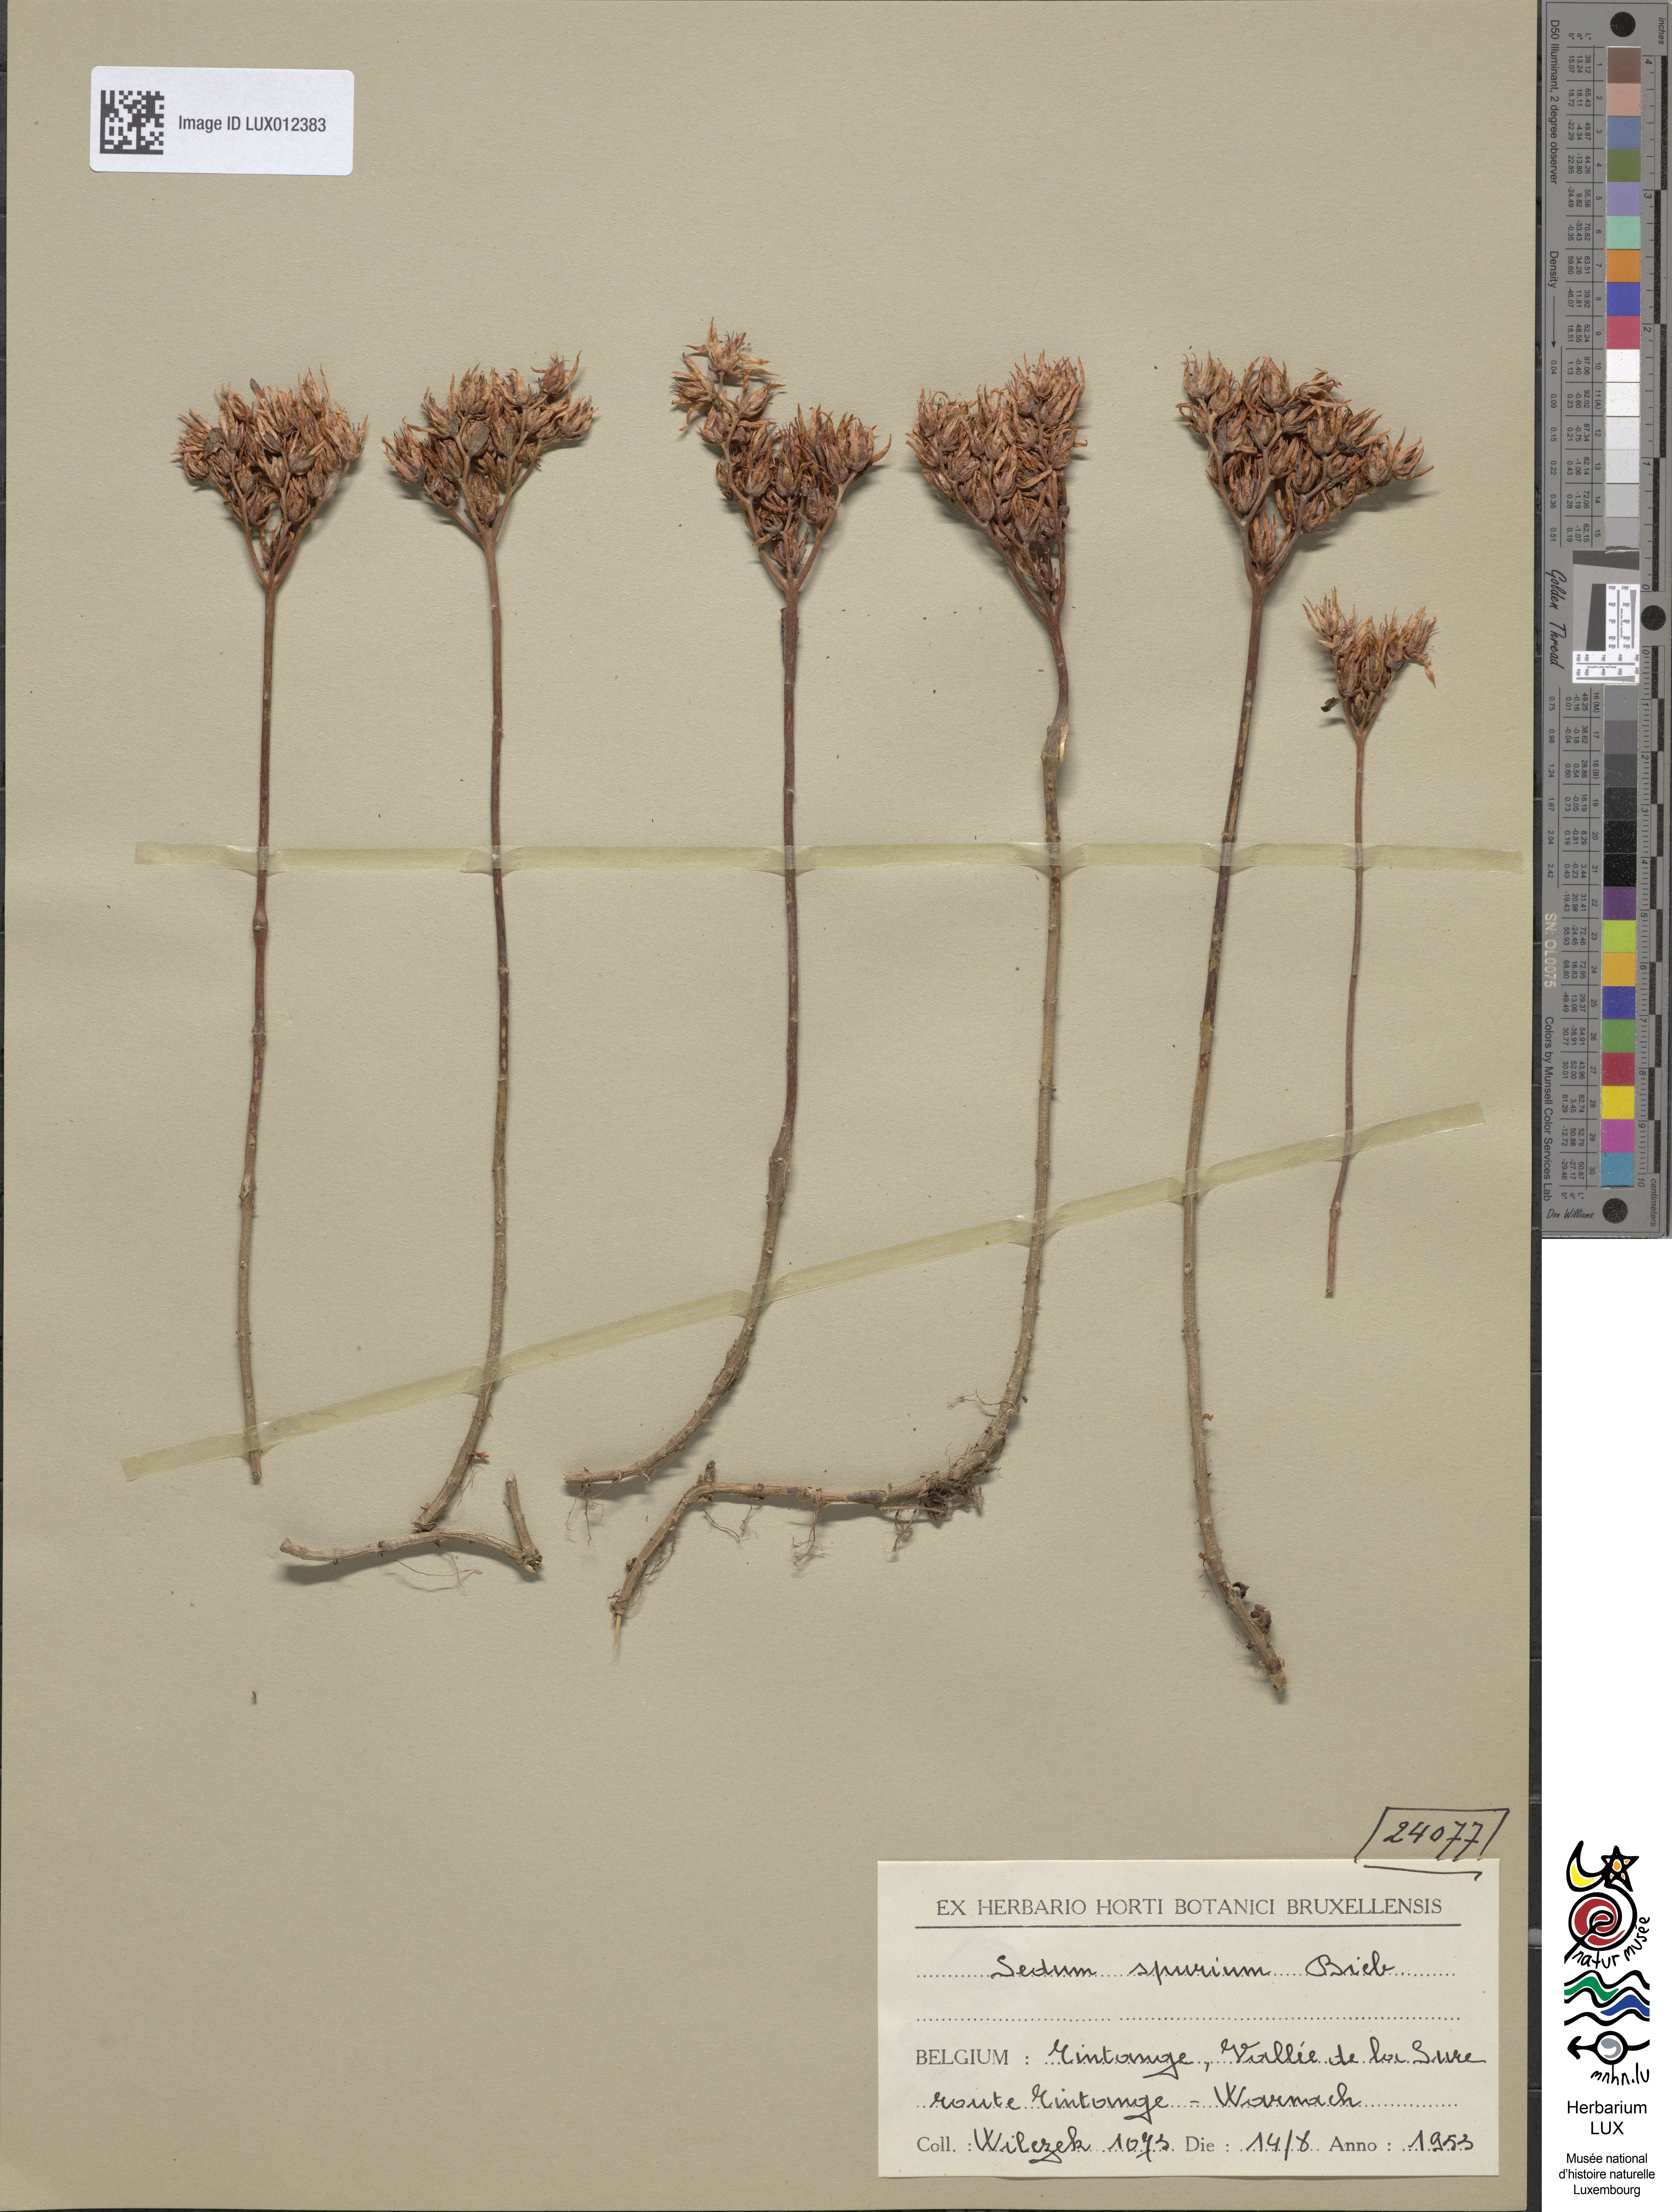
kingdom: Plantae
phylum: Tracheophyta
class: Magnoliopsida
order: Saxifragales
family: Crassulaceae
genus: Phedimus
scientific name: Phedimus spurius
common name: Caucasian stonecrop
